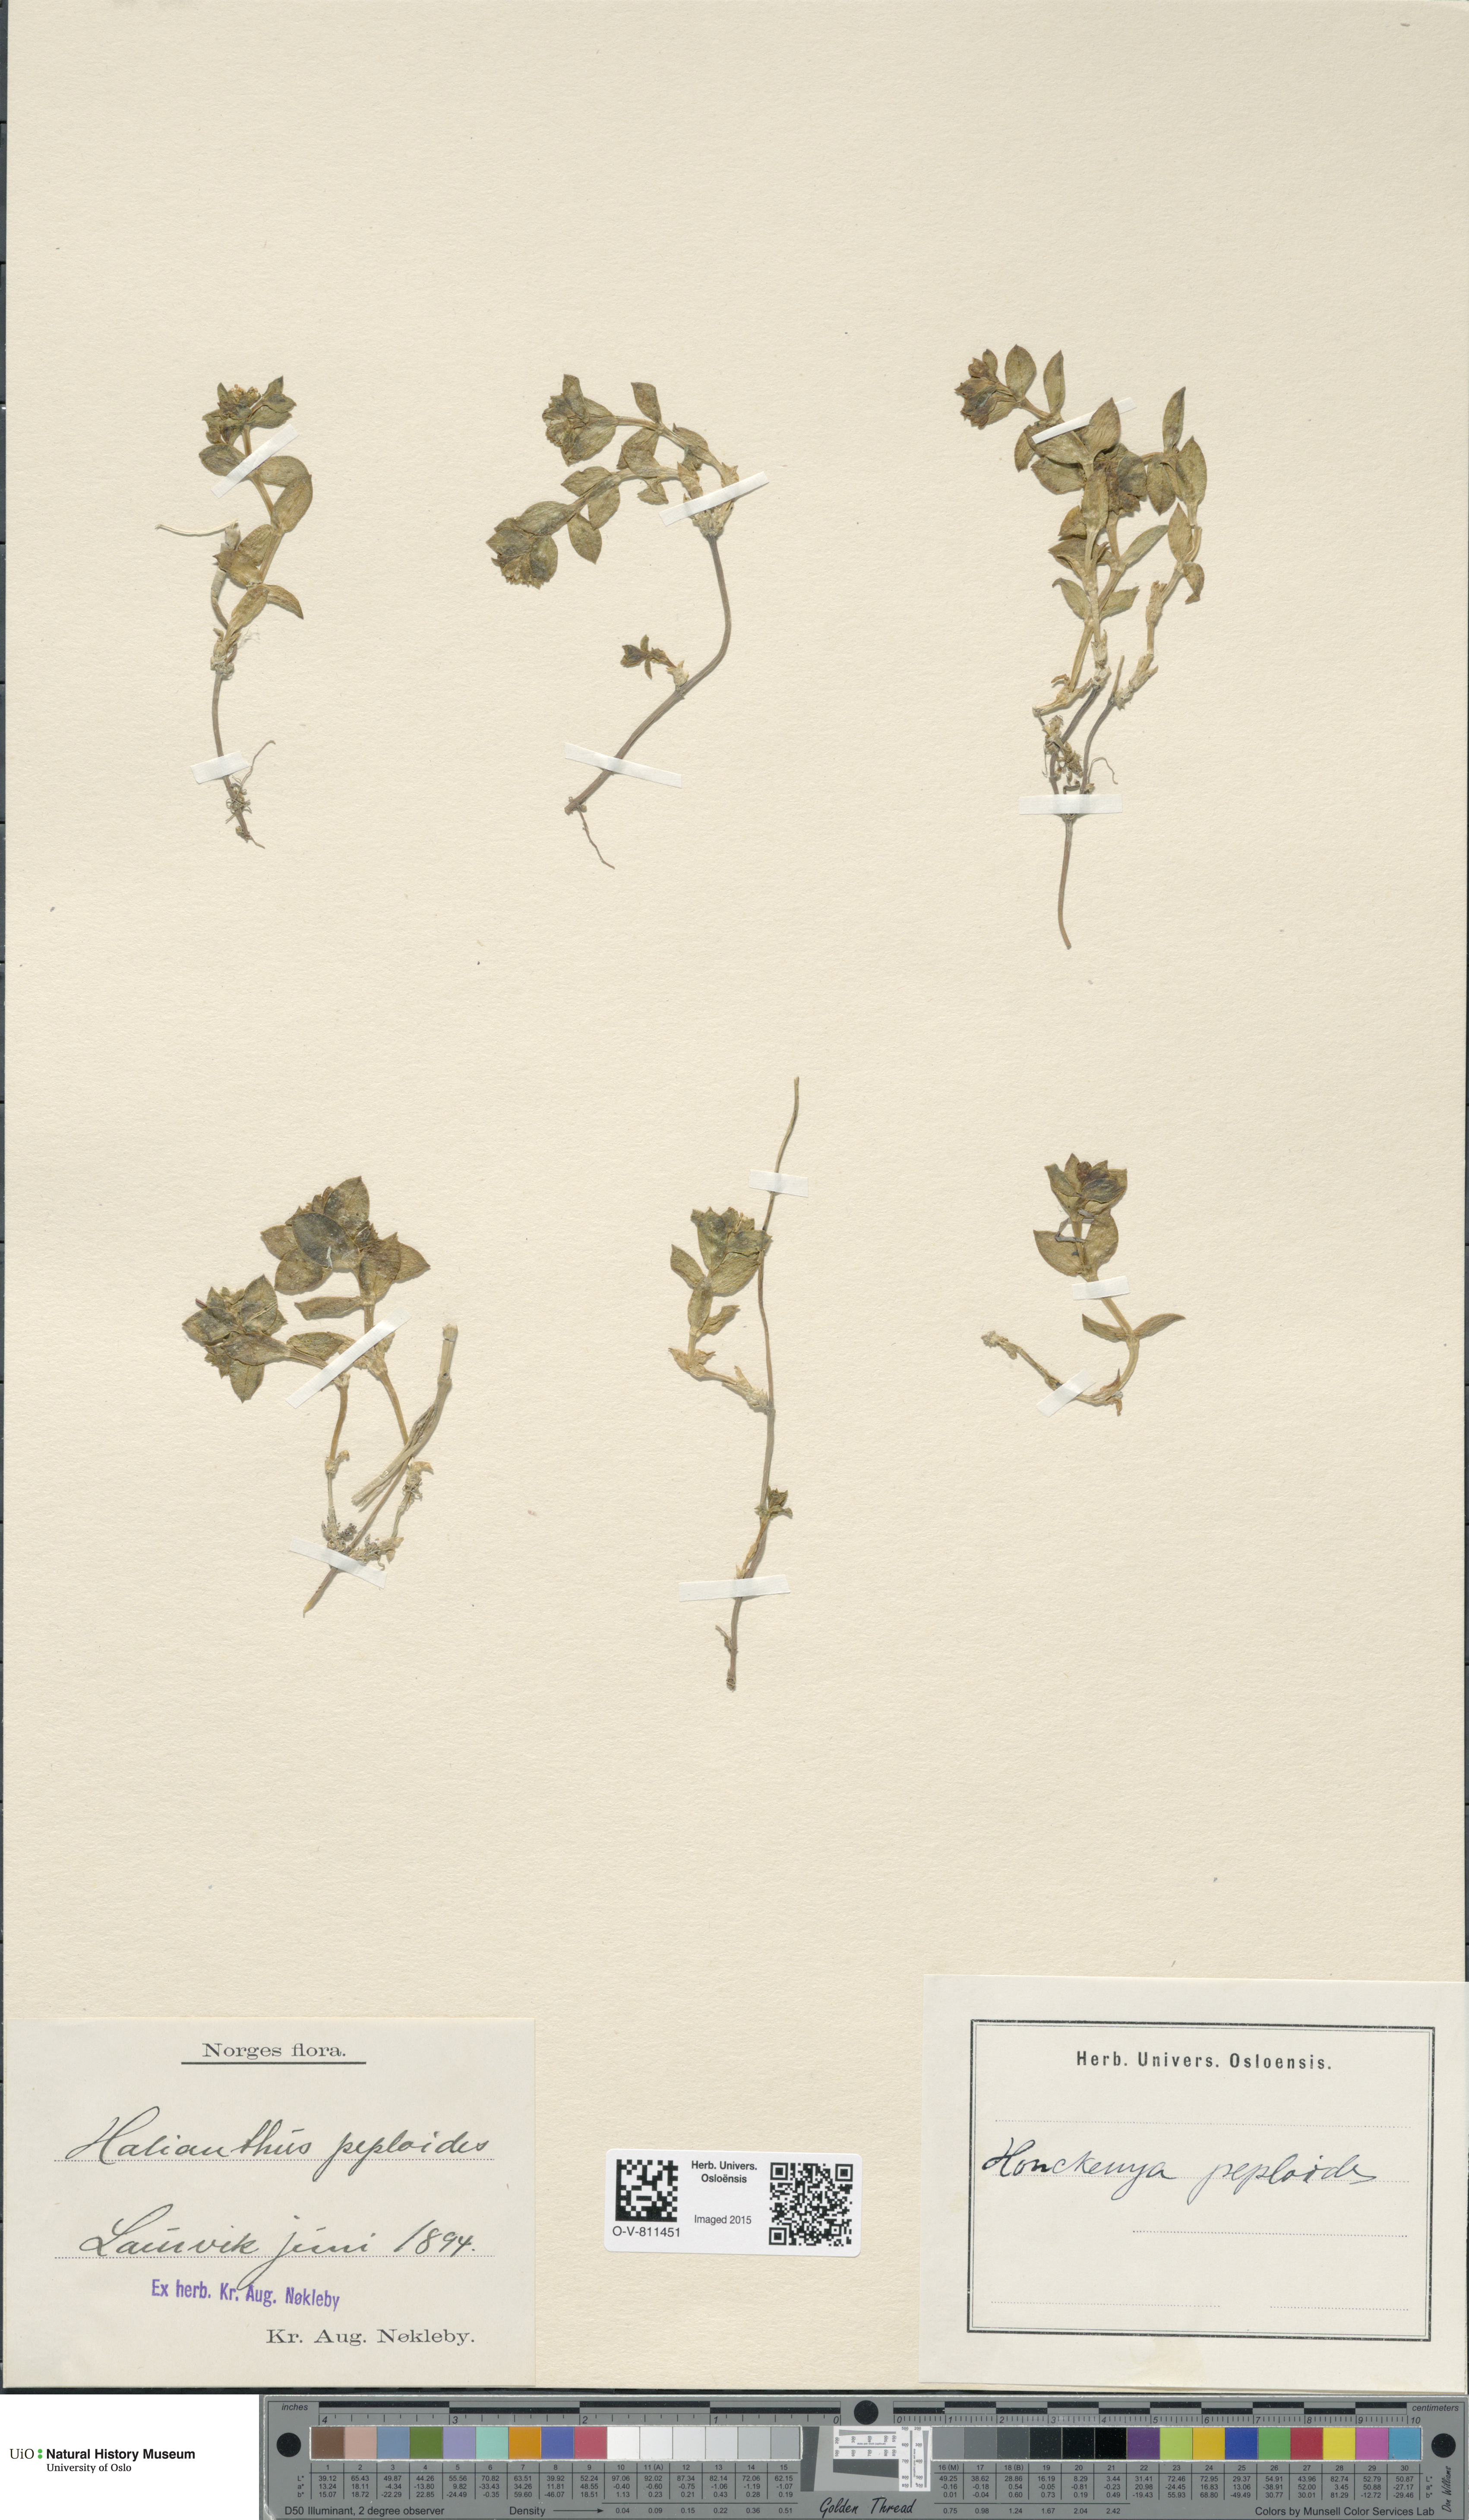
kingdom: Plantae
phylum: Tracheophyta
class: Magnoliopsida
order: Caryophyllales
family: Caryophyllaceae
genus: Honckenya
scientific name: Honckenya peploides
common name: Sea sandwort
